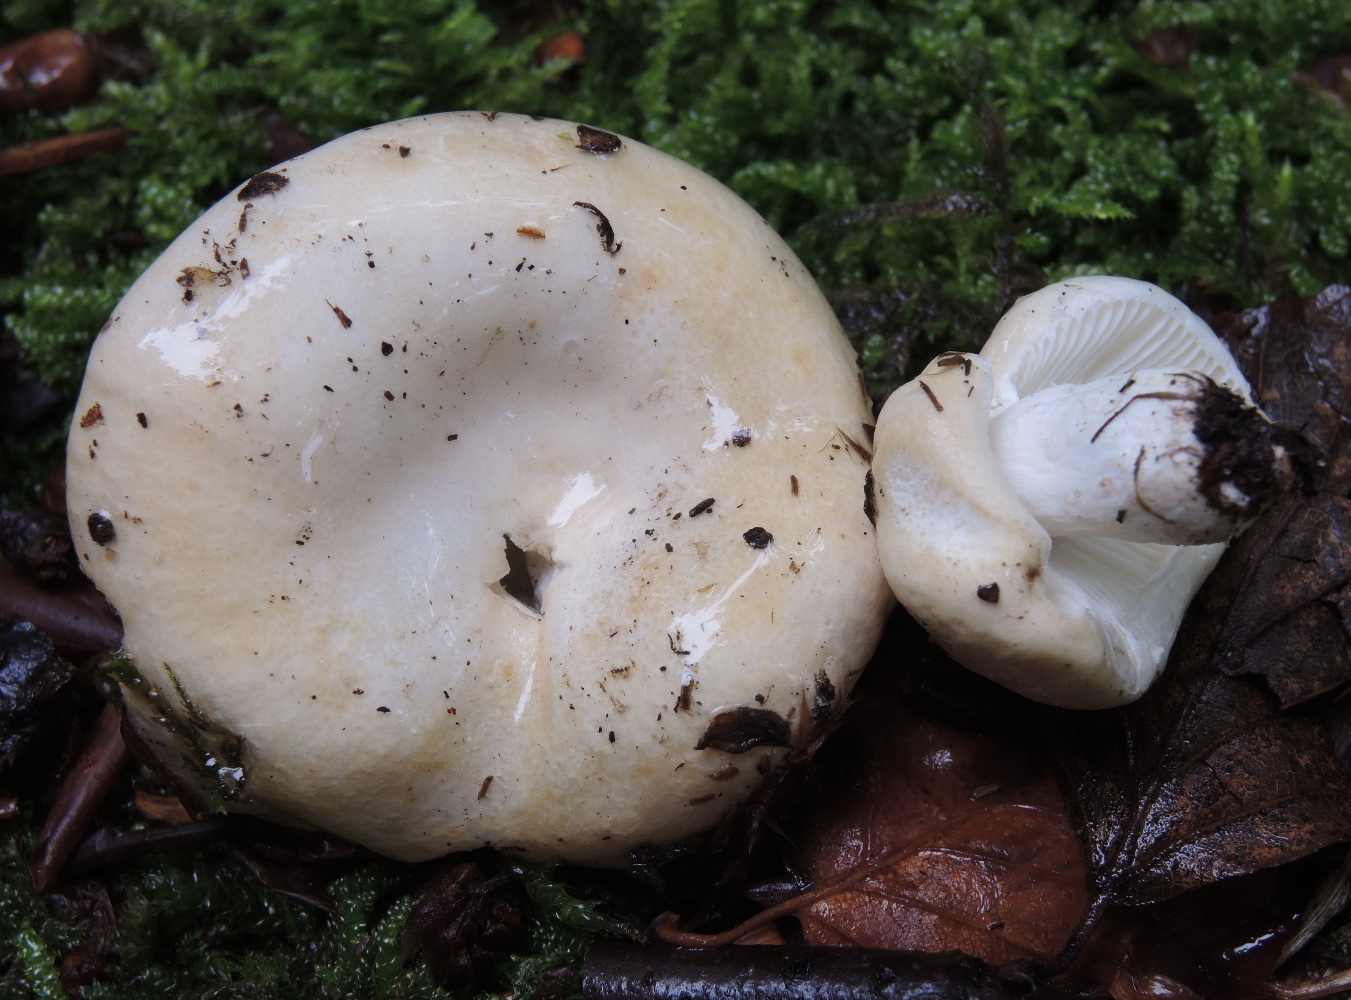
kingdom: Fungi
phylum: Basidiomycota
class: Agaricomycetes
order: Russulales
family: Russulaceae
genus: Russula
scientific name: Russula roseoaurantia
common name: kornet skørhat
